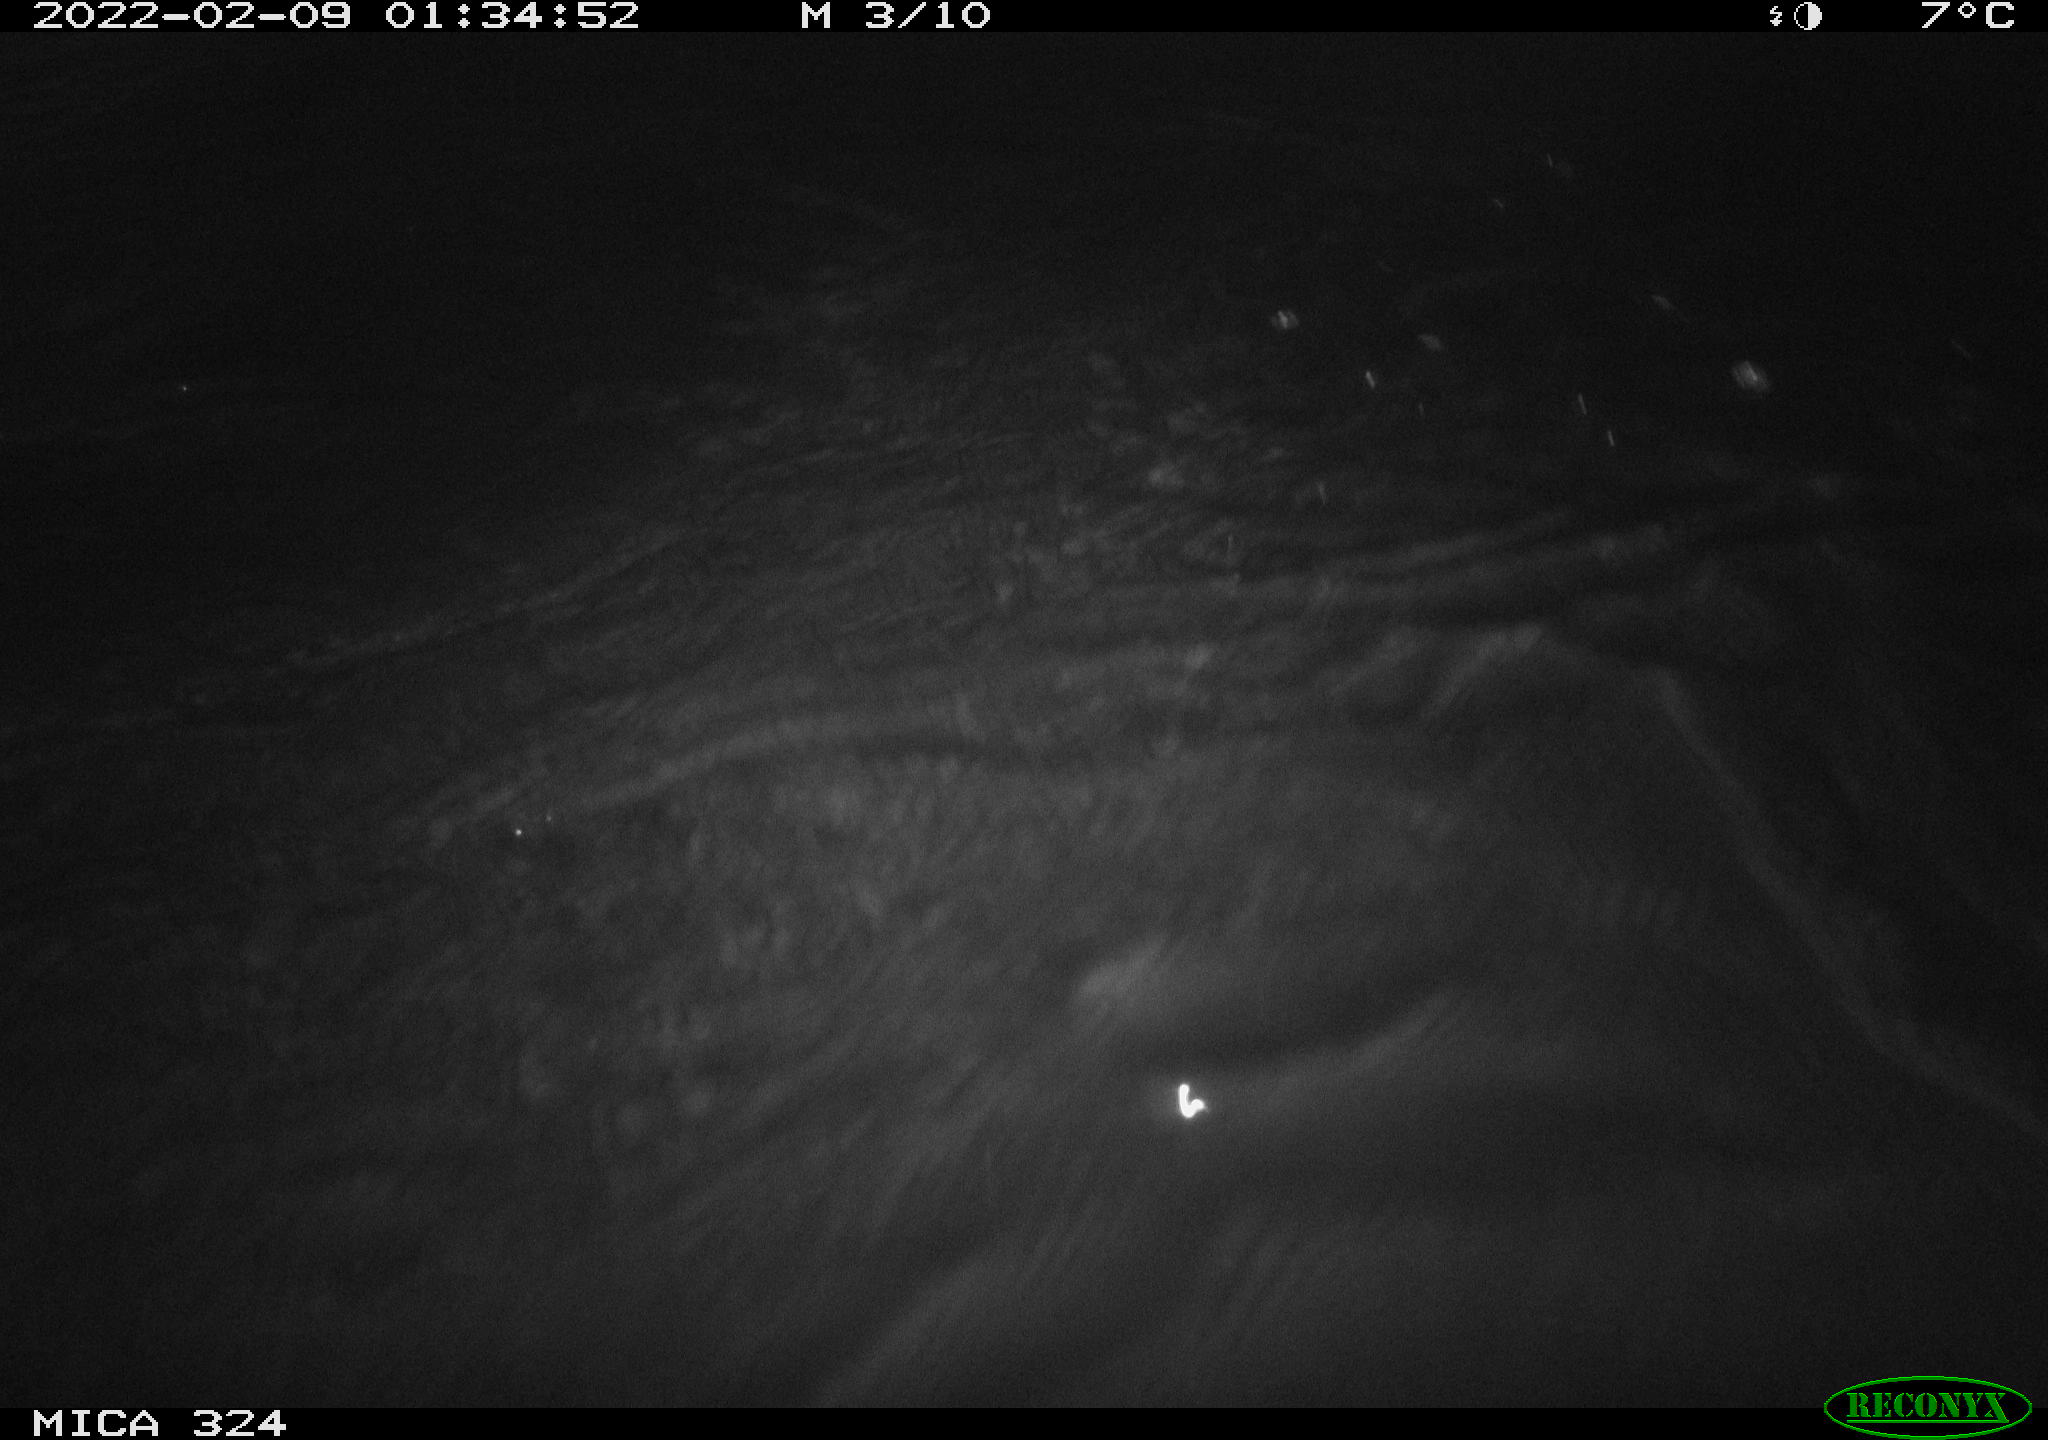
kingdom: Animalia
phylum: Chordata
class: Mammalia
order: Rodentia
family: Cricetidae
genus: Ondatra
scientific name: Ondatra zibethicus
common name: Muskrat
